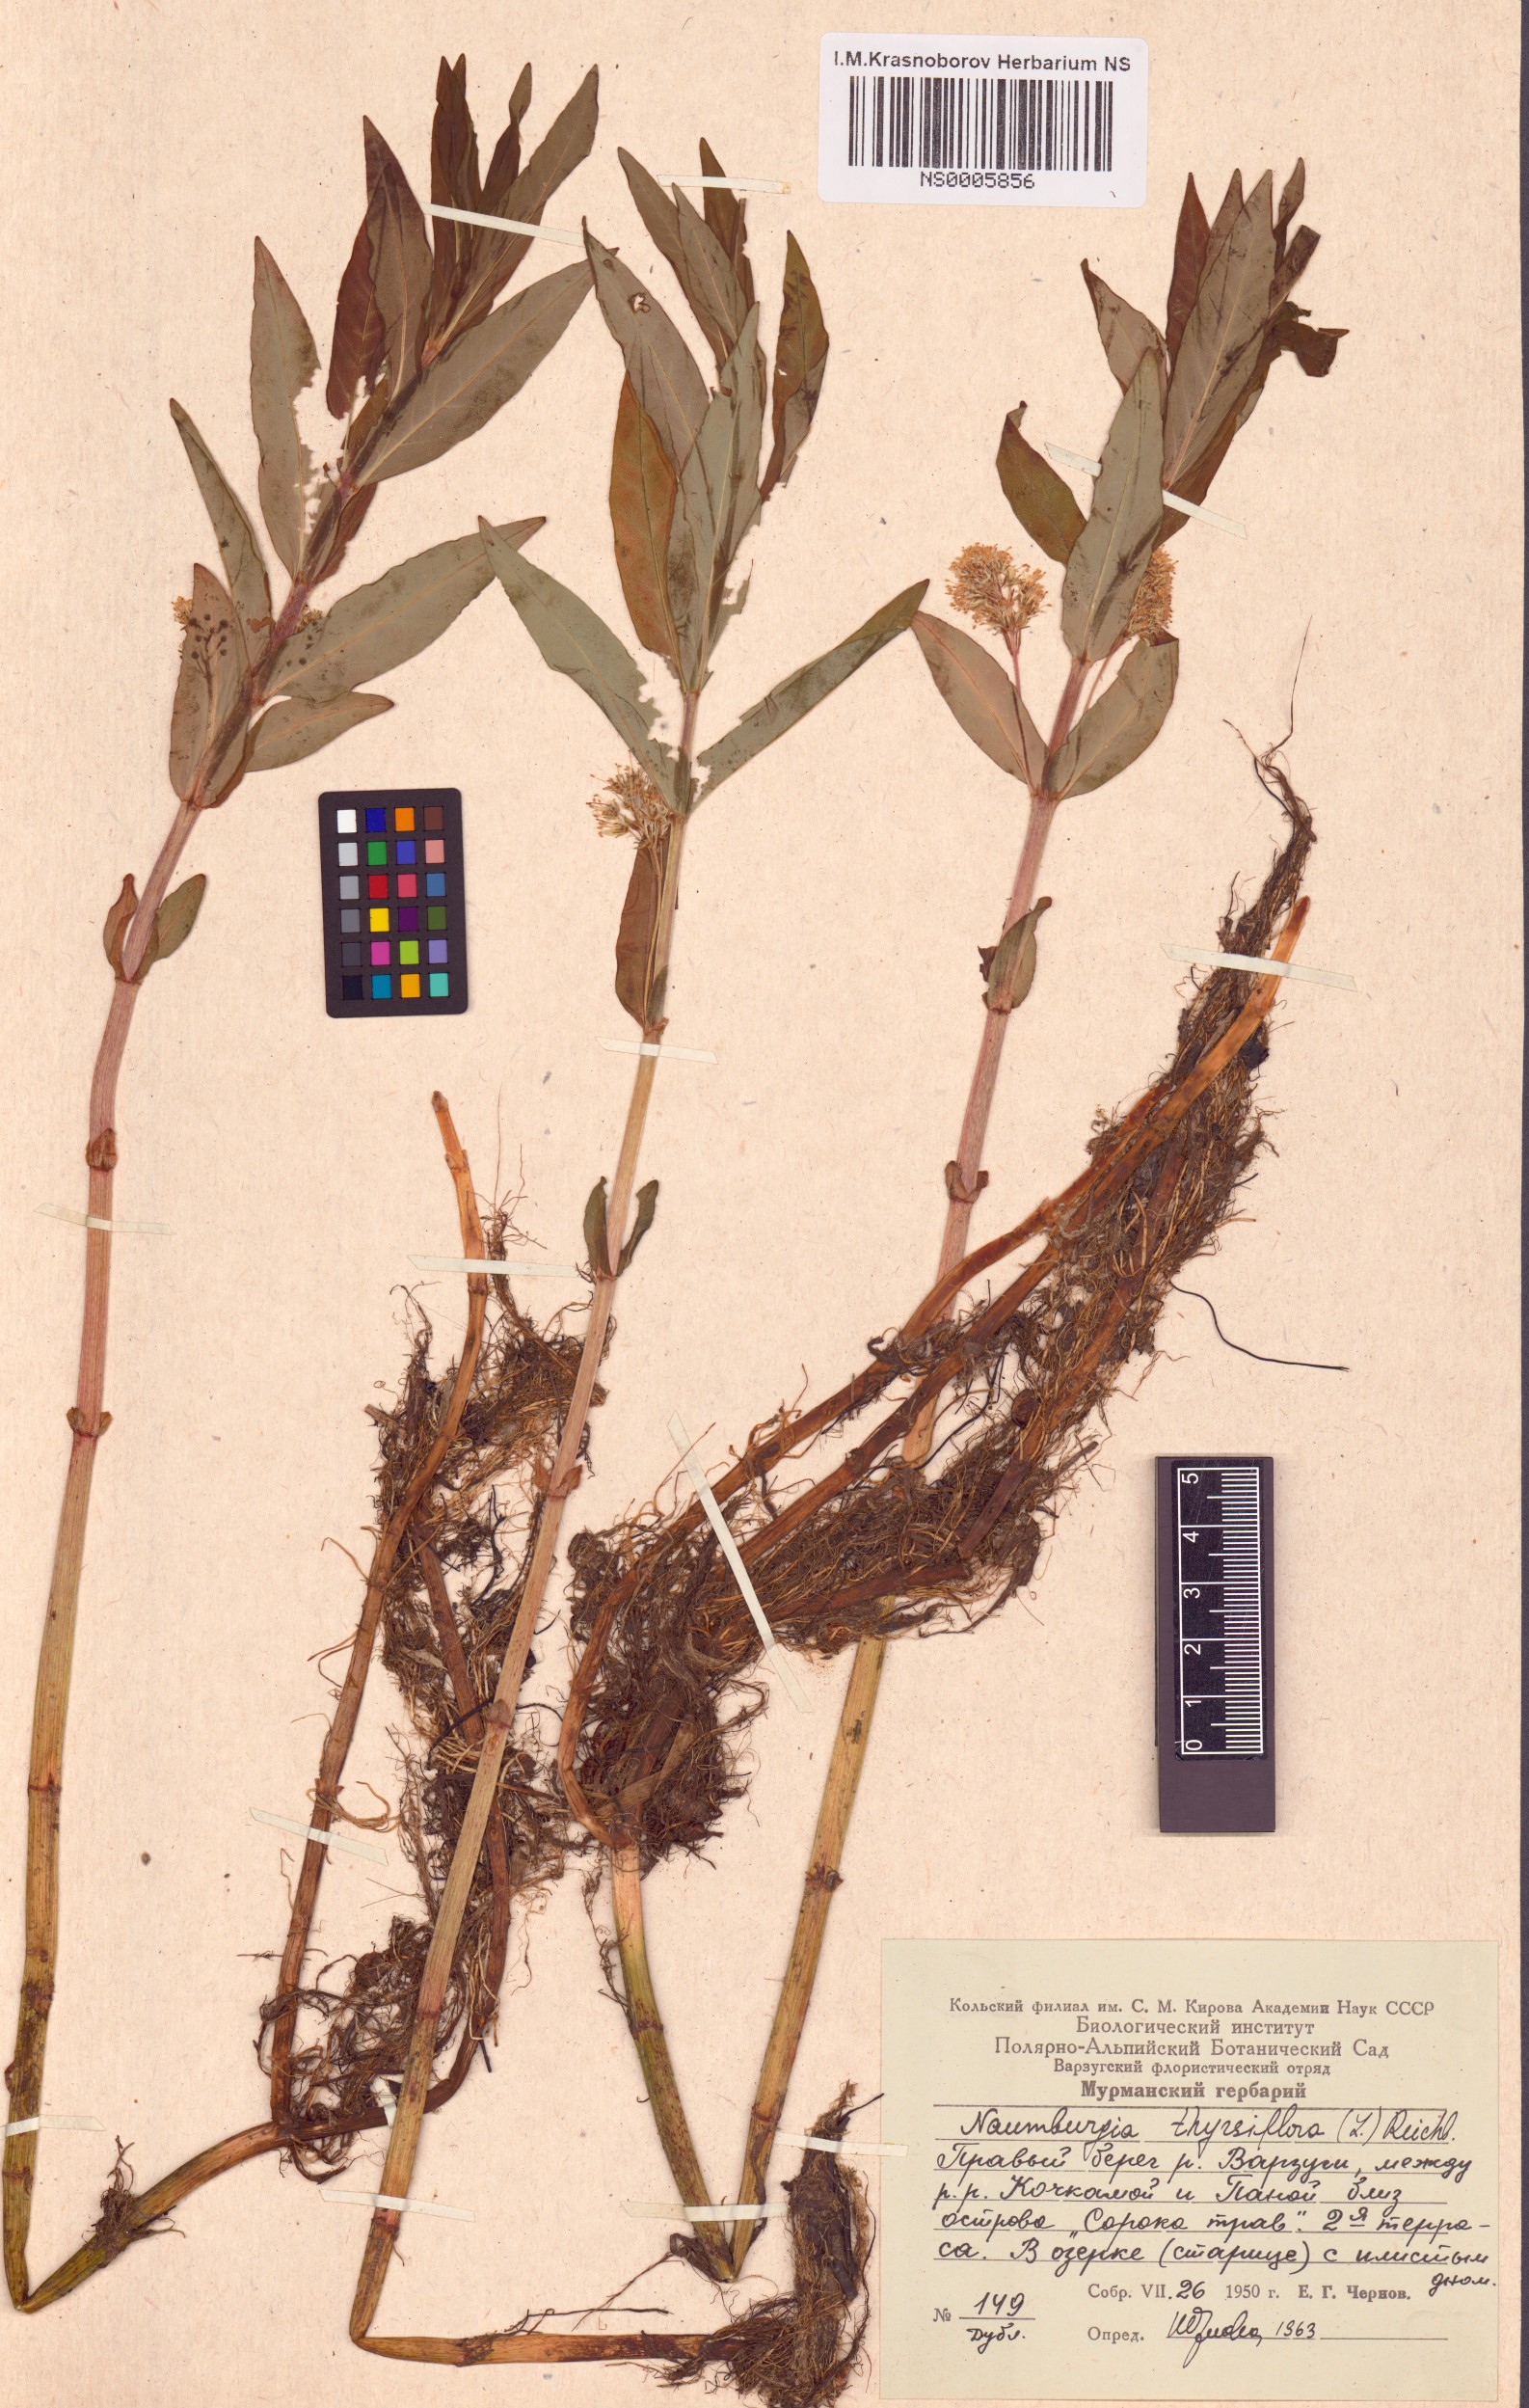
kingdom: Plantae
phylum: Tracheophyta
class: Magnoliopsida
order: Ericales
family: Primulaceae
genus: Lysimachia
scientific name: Lysimachia thyrsiflora
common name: Tufted loosestrife
